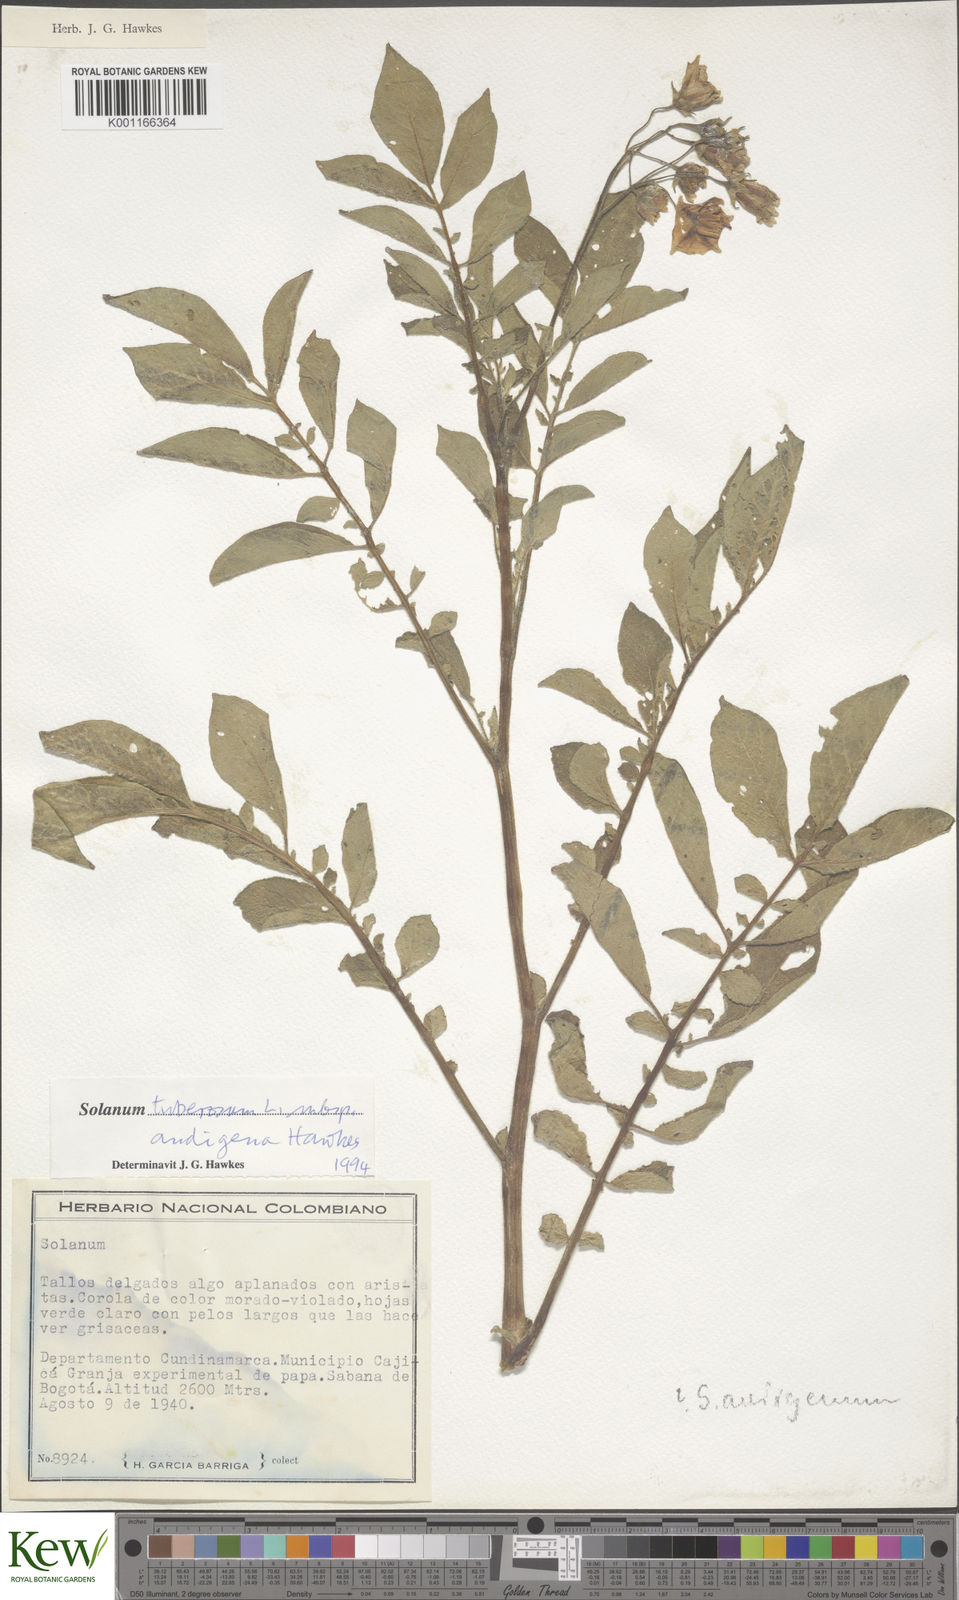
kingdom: Plantae
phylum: Tracheophyta
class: Magnoliopsida
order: Solanales
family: Solanaceae
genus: Solanum
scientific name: Solanum tuberosum
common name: Potato
